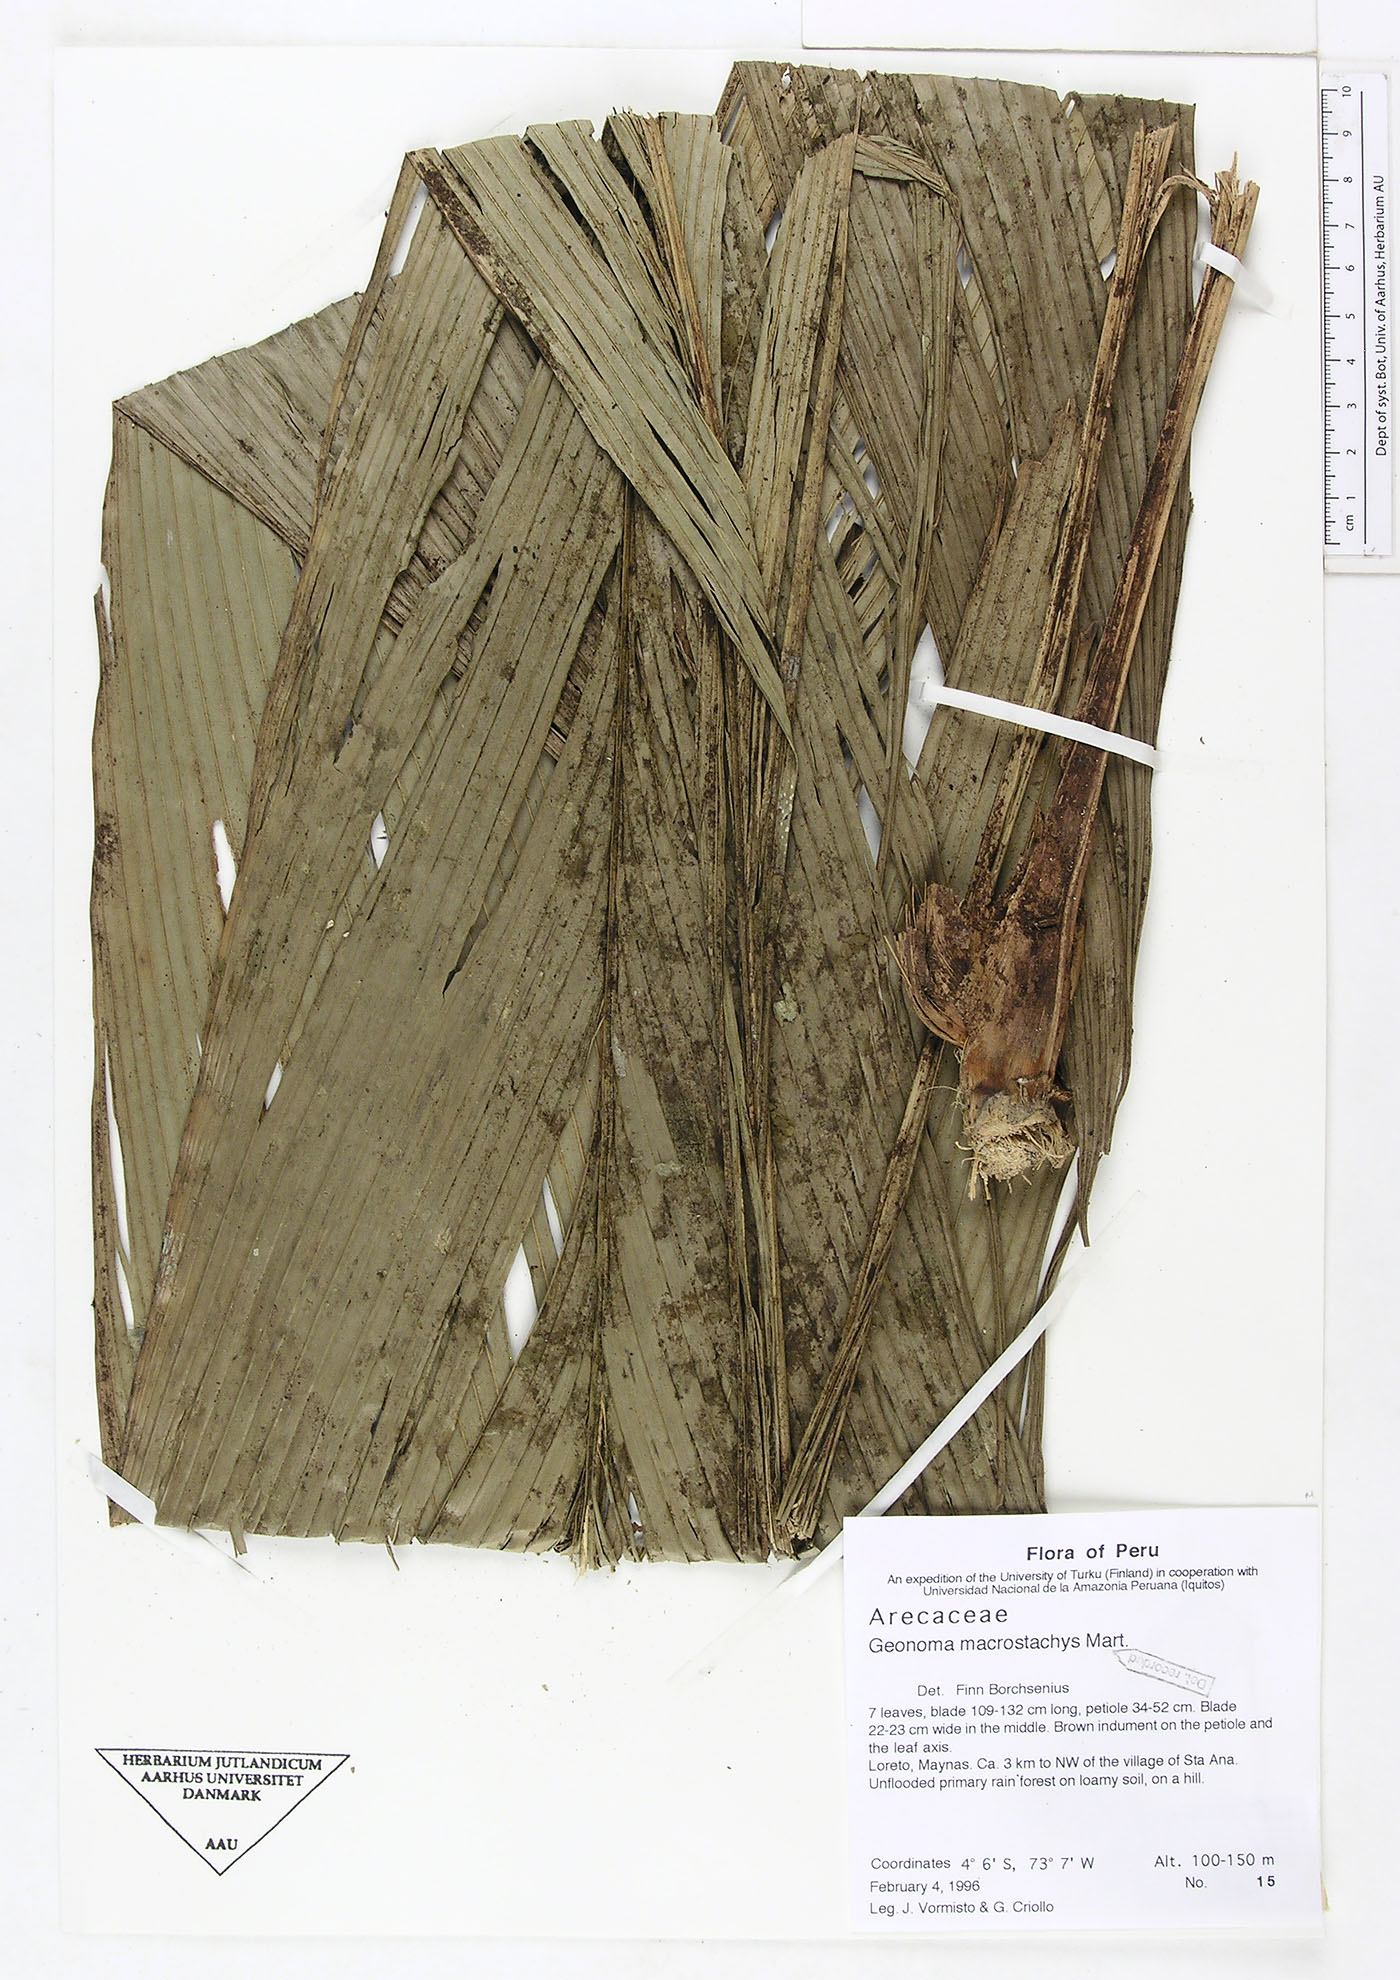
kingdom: Plantae
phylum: Tracheophyta
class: Liliopsida
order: Arecales
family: Arecaceae
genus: Geonoma
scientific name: Geonoma macrostachys
